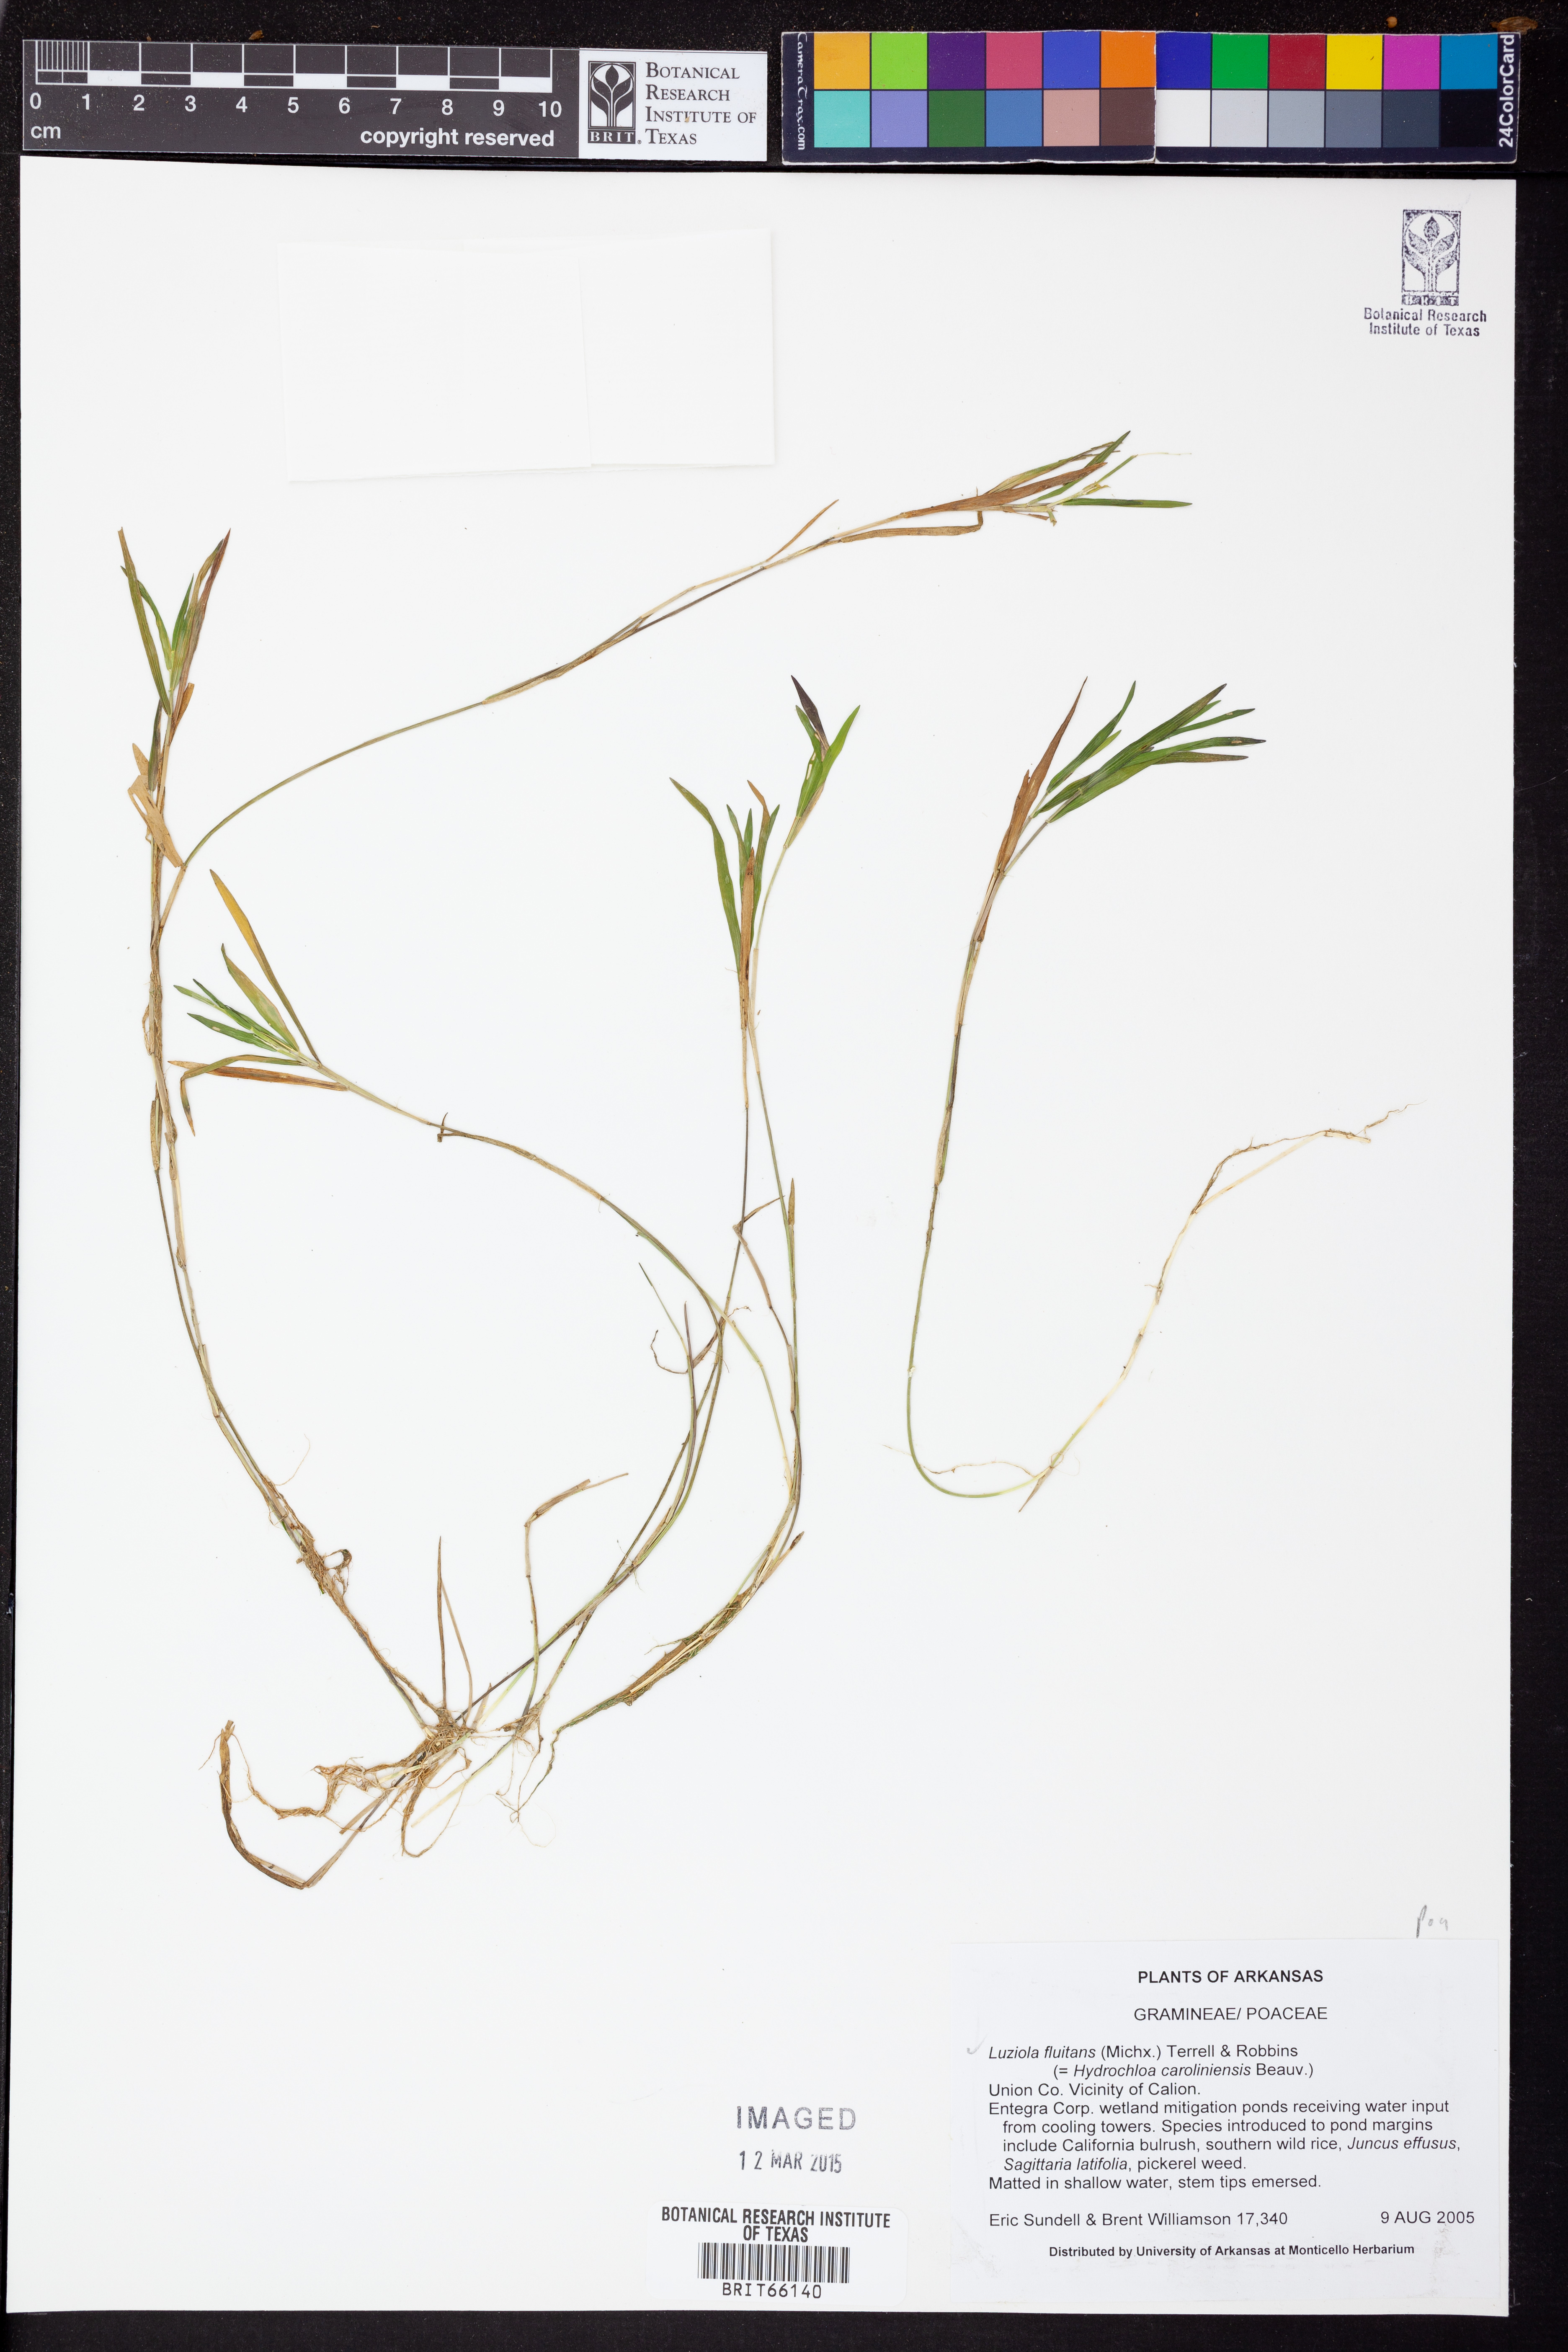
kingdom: Plantae
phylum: Tracheophyta
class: Liliopsida
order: Poales
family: Poaceae
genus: Luziola
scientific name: Luziola fluitans
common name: Silverleaf grass
